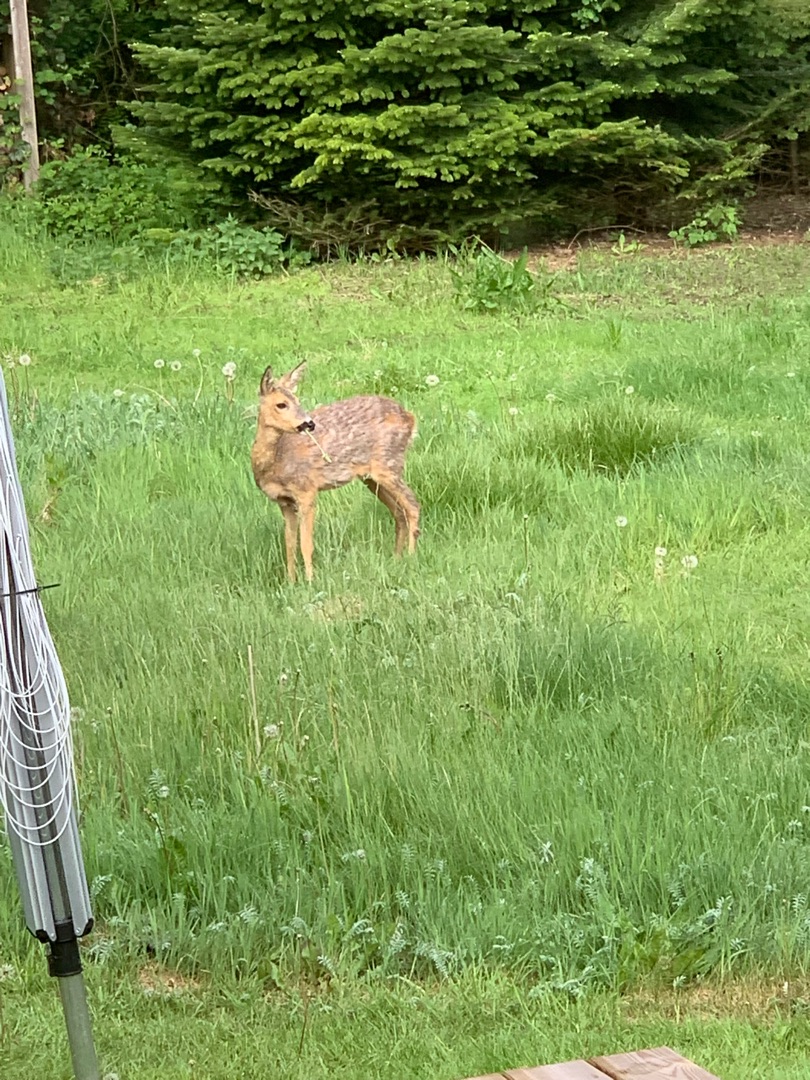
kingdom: Animalia
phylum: Chordata
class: Mammalia
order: Artiodactyla
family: Cervidae
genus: Capreolus
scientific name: Capreolus capreolus
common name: Rådyr
